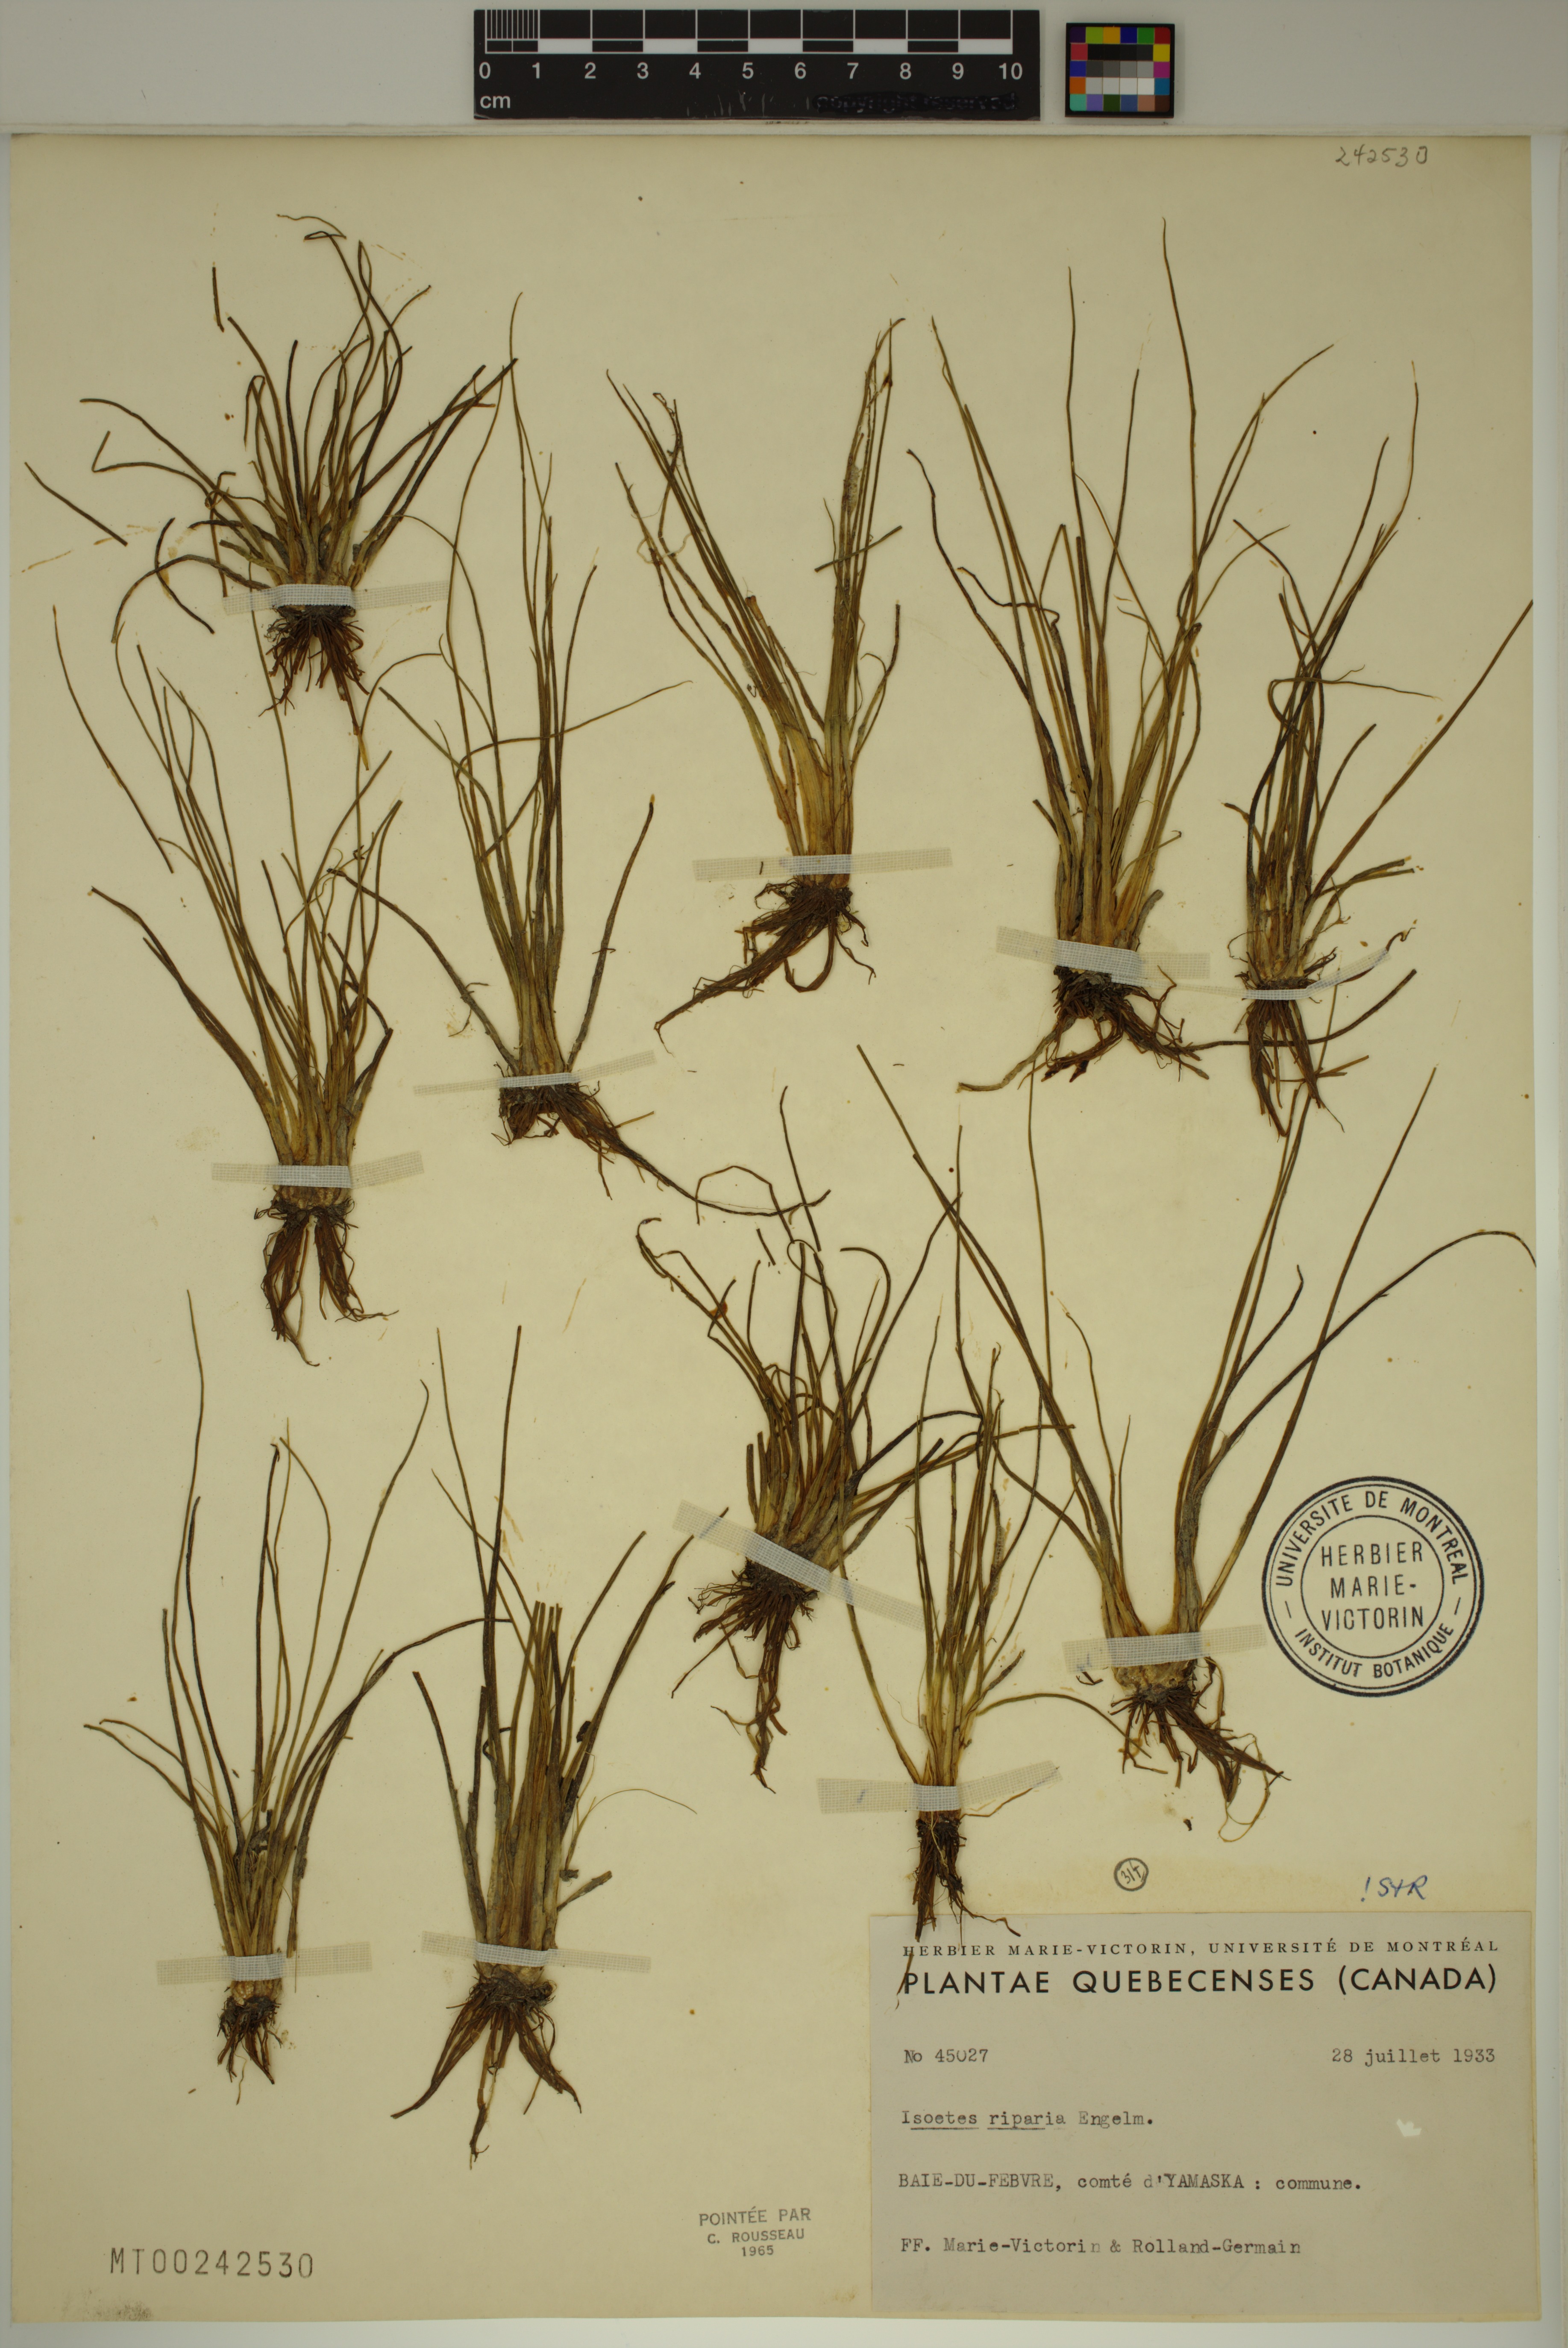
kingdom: Plantae
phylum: Tracheophyta
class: Lycopodiopsida
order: Isoetales
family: Isoetaceae
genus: Isoetes
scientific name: Isoetes septentrionalis
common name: Northern quillwort
